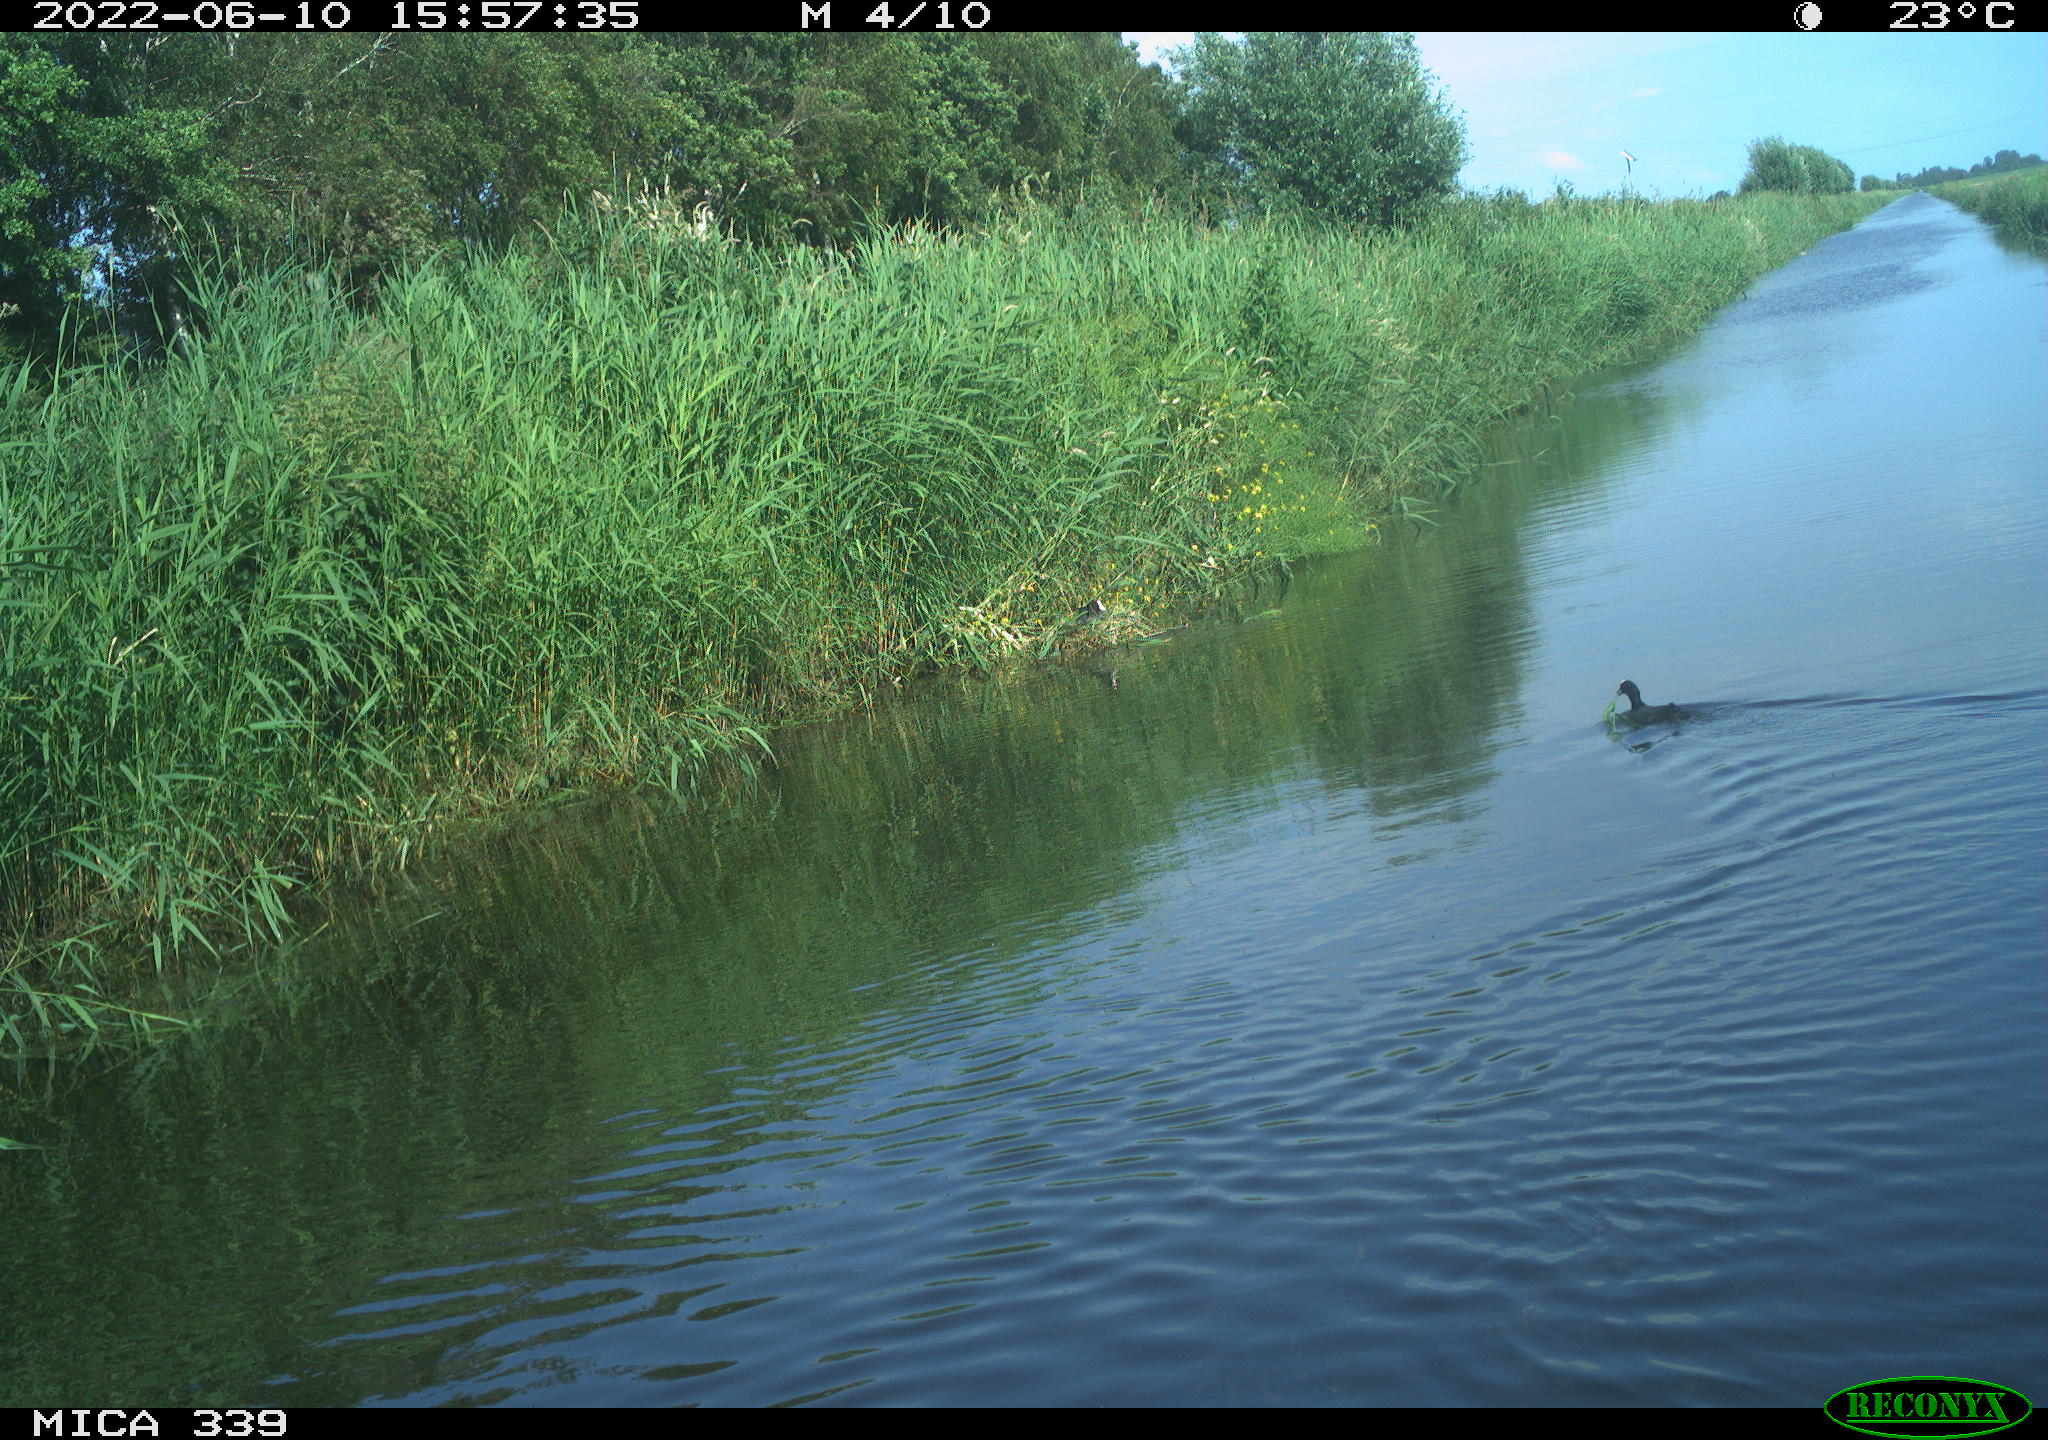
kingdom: Animalia
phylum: Chordata
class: Aves
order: Gruiformes
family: Rallidae
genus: Fulica
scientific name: Fulica atra
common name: Eurasian coot
